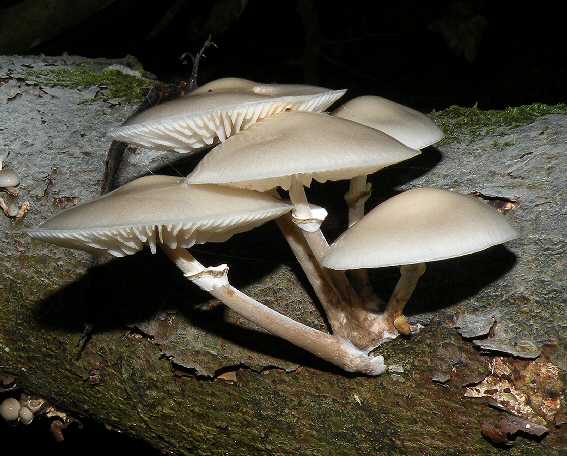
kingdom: Fungi
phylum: Basidiomycota
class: Agaricomycetes
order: Agaricales
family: Physalacriaceae
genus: Mucidula
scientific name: Mucidula mucida
